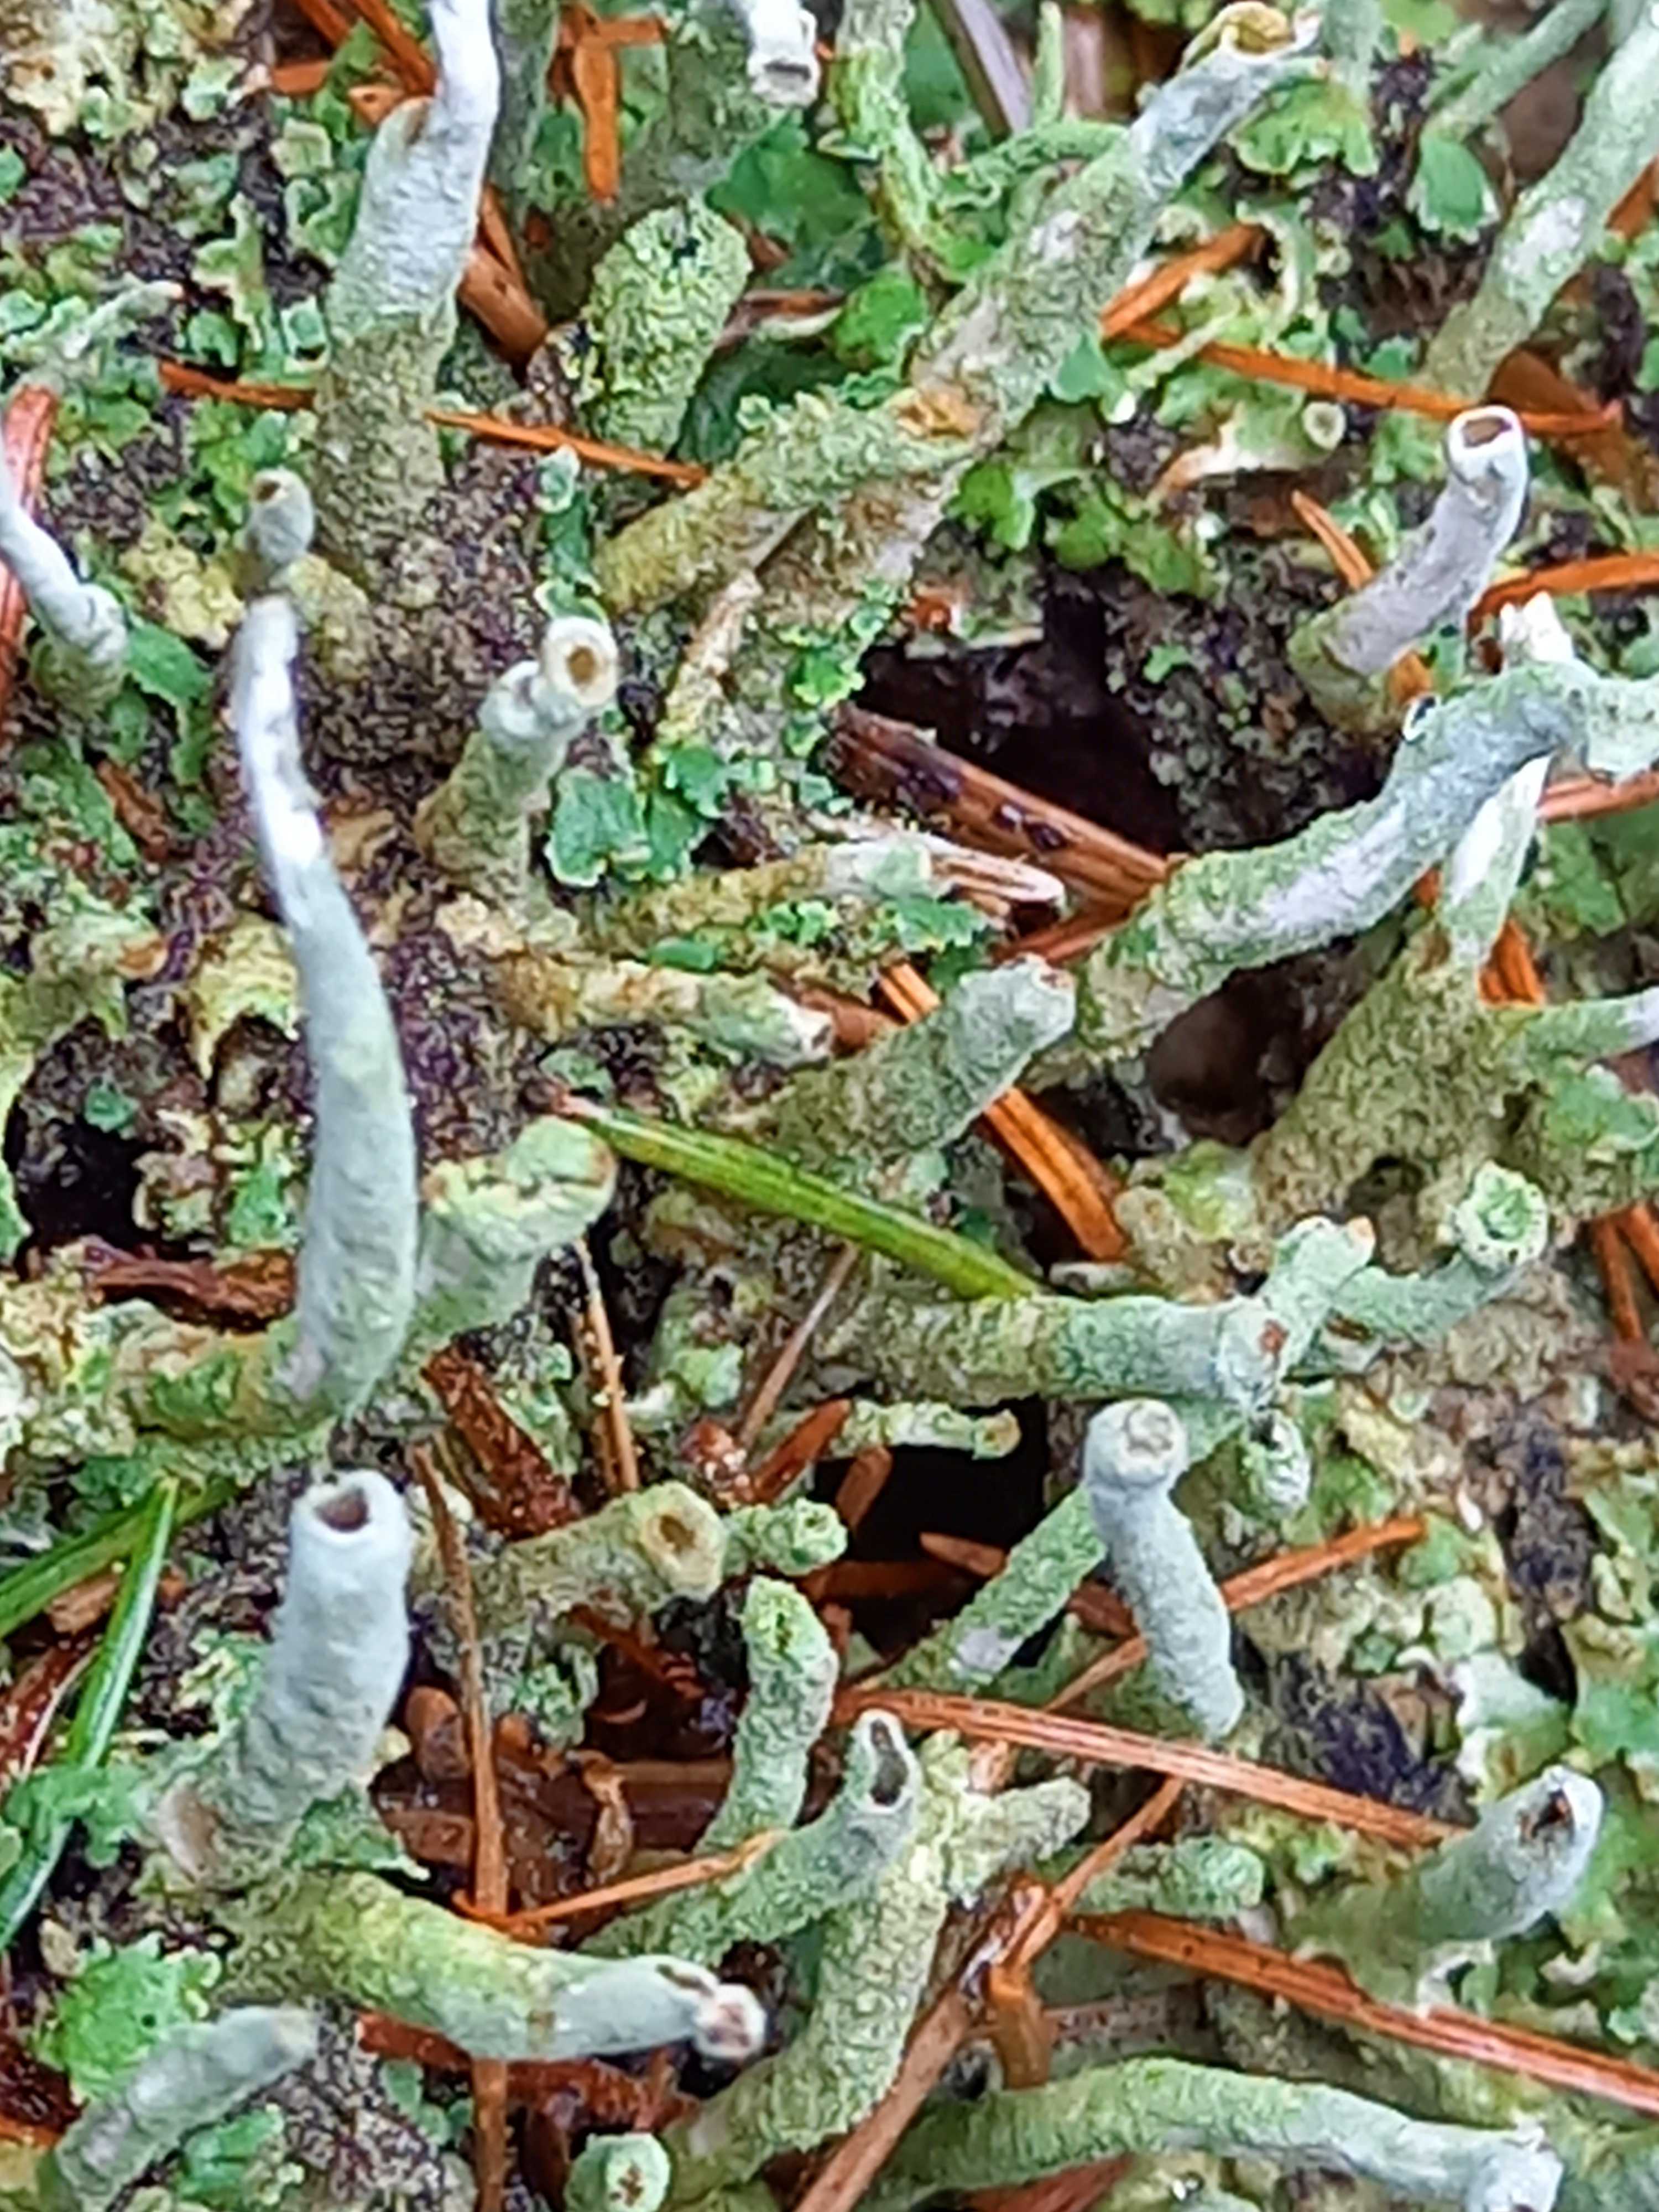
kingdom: Fungi
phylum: Ascomycota
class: Lecanoromycetes
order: Lecanorales
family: Cladoniaceae
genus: Cladonia
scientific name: Cladonia ochrochlora
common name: stød-bægerlav
